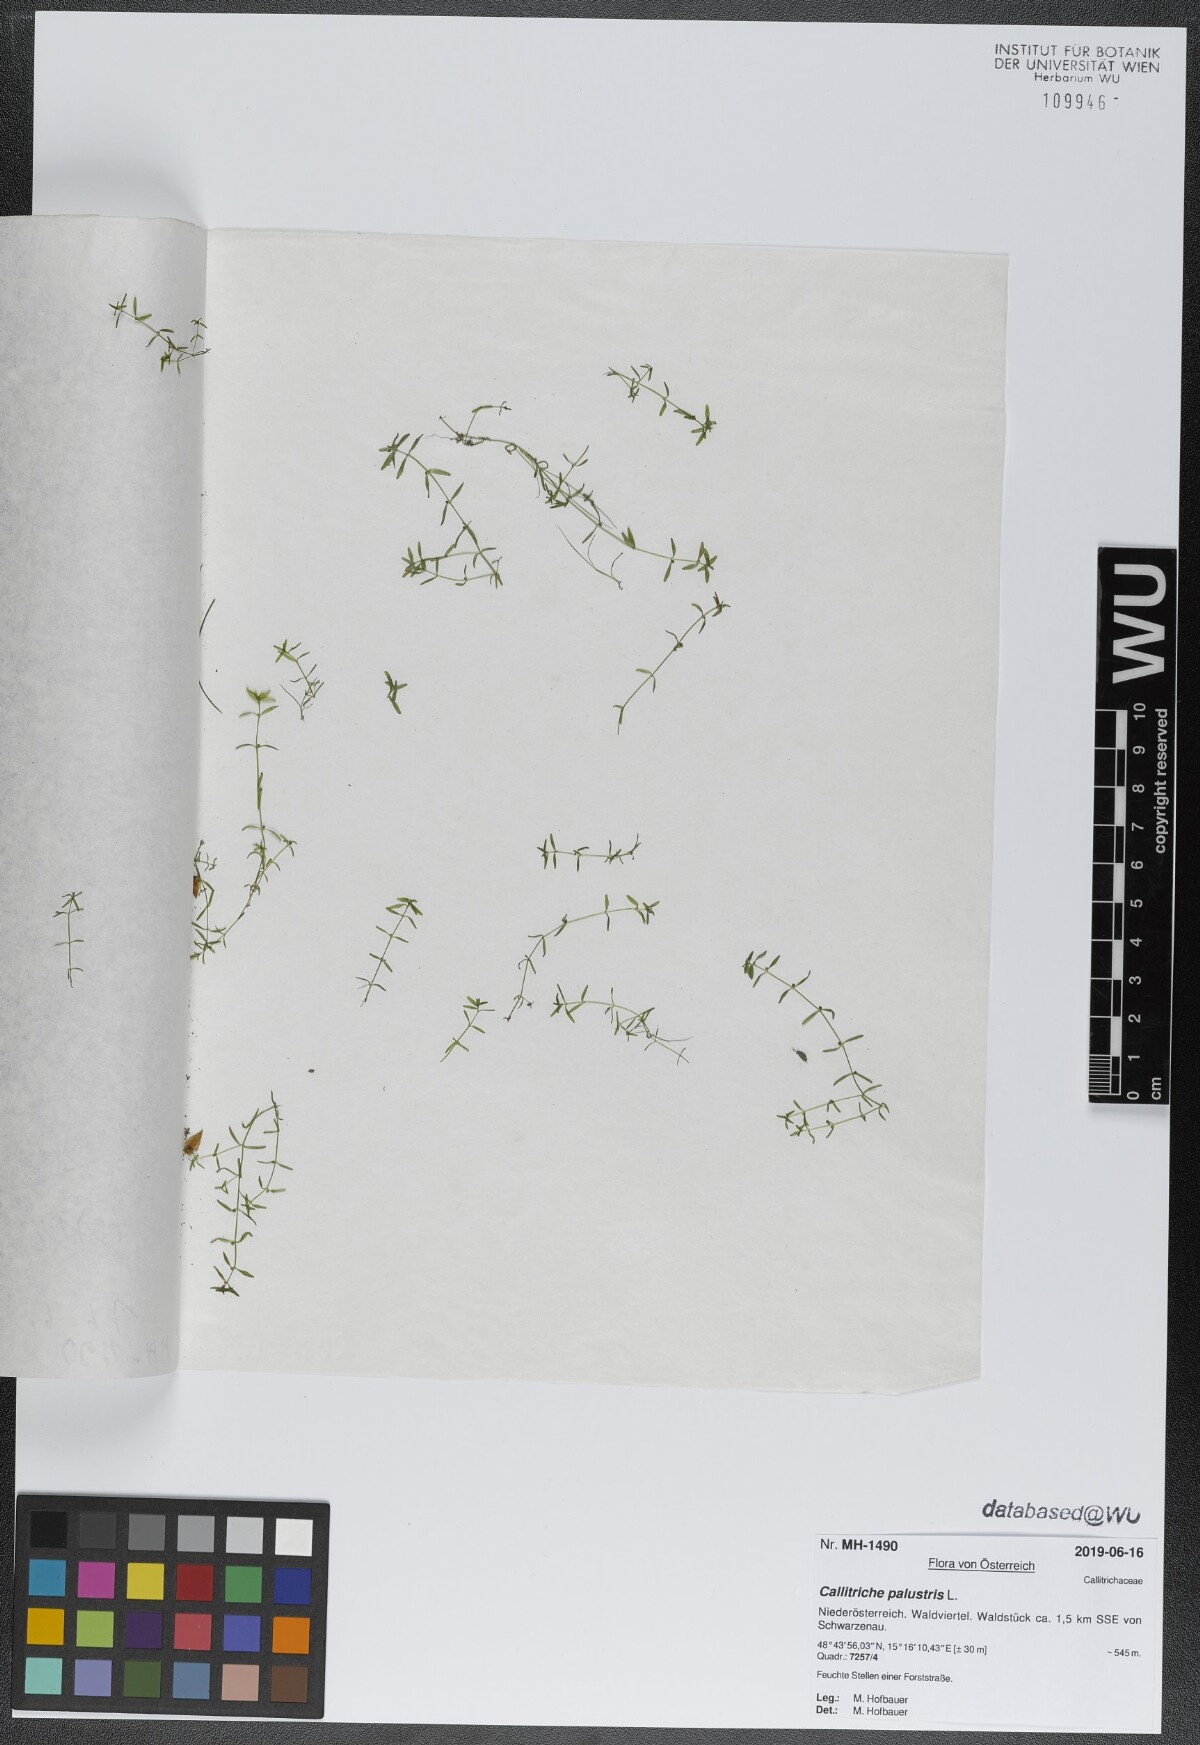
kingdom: Plantae
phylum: Tracheophyta
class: Magnoliopsida
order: Lamiales
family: Plantaginaceae
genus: Callitriche
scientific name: Callitriche palustris
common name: Spring water-starwort
